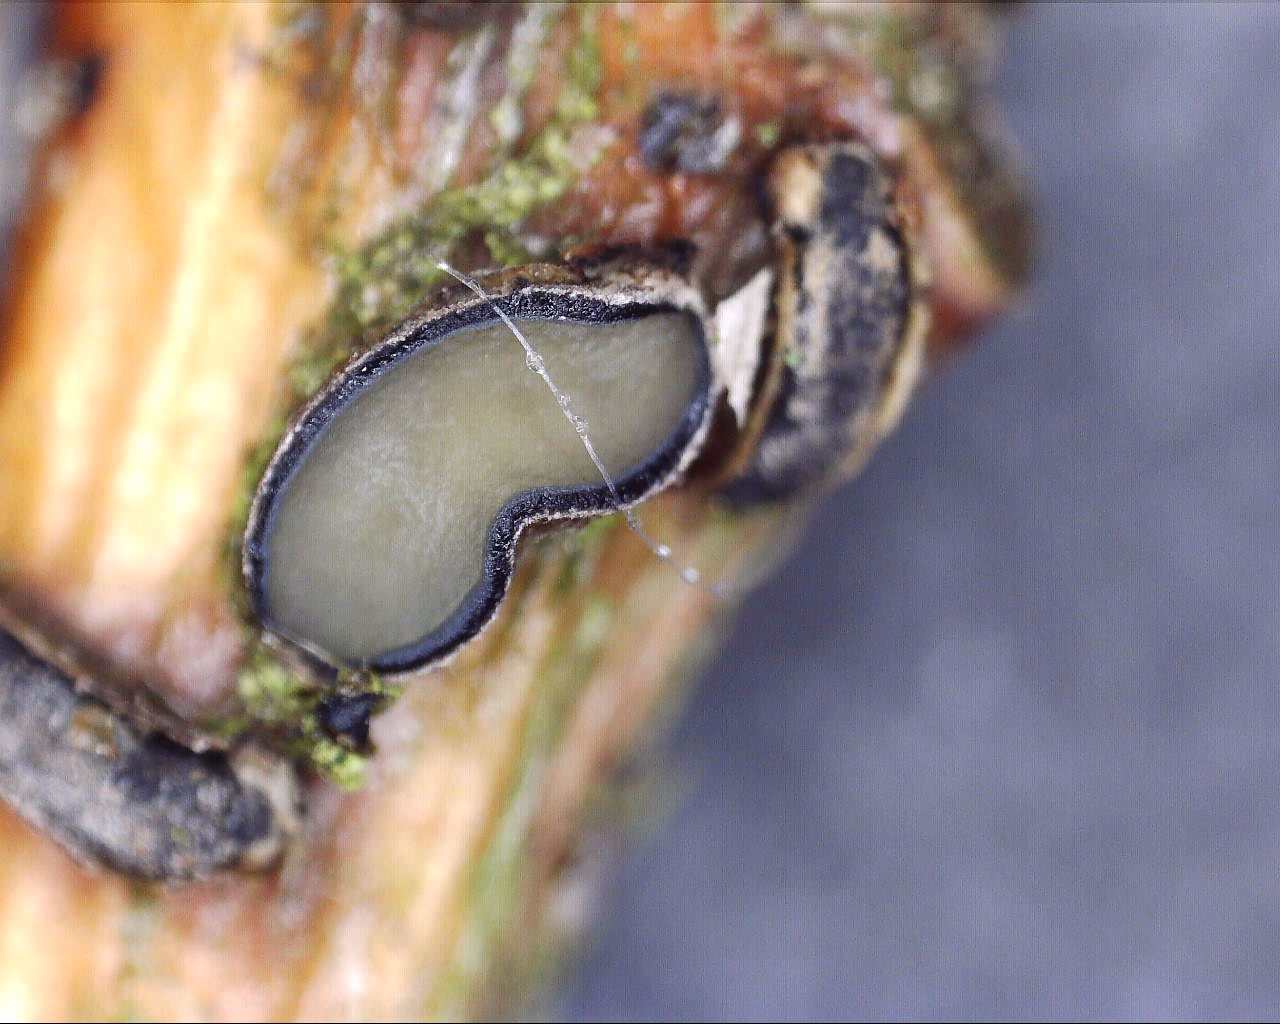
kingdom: Fungi
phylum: Ascomycota
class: Leotiomycetes
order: Rhytismatales
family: Rhytismataceae
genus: Colpoma
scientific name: Colpoma quercinum
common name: ege-sprækkeskive
